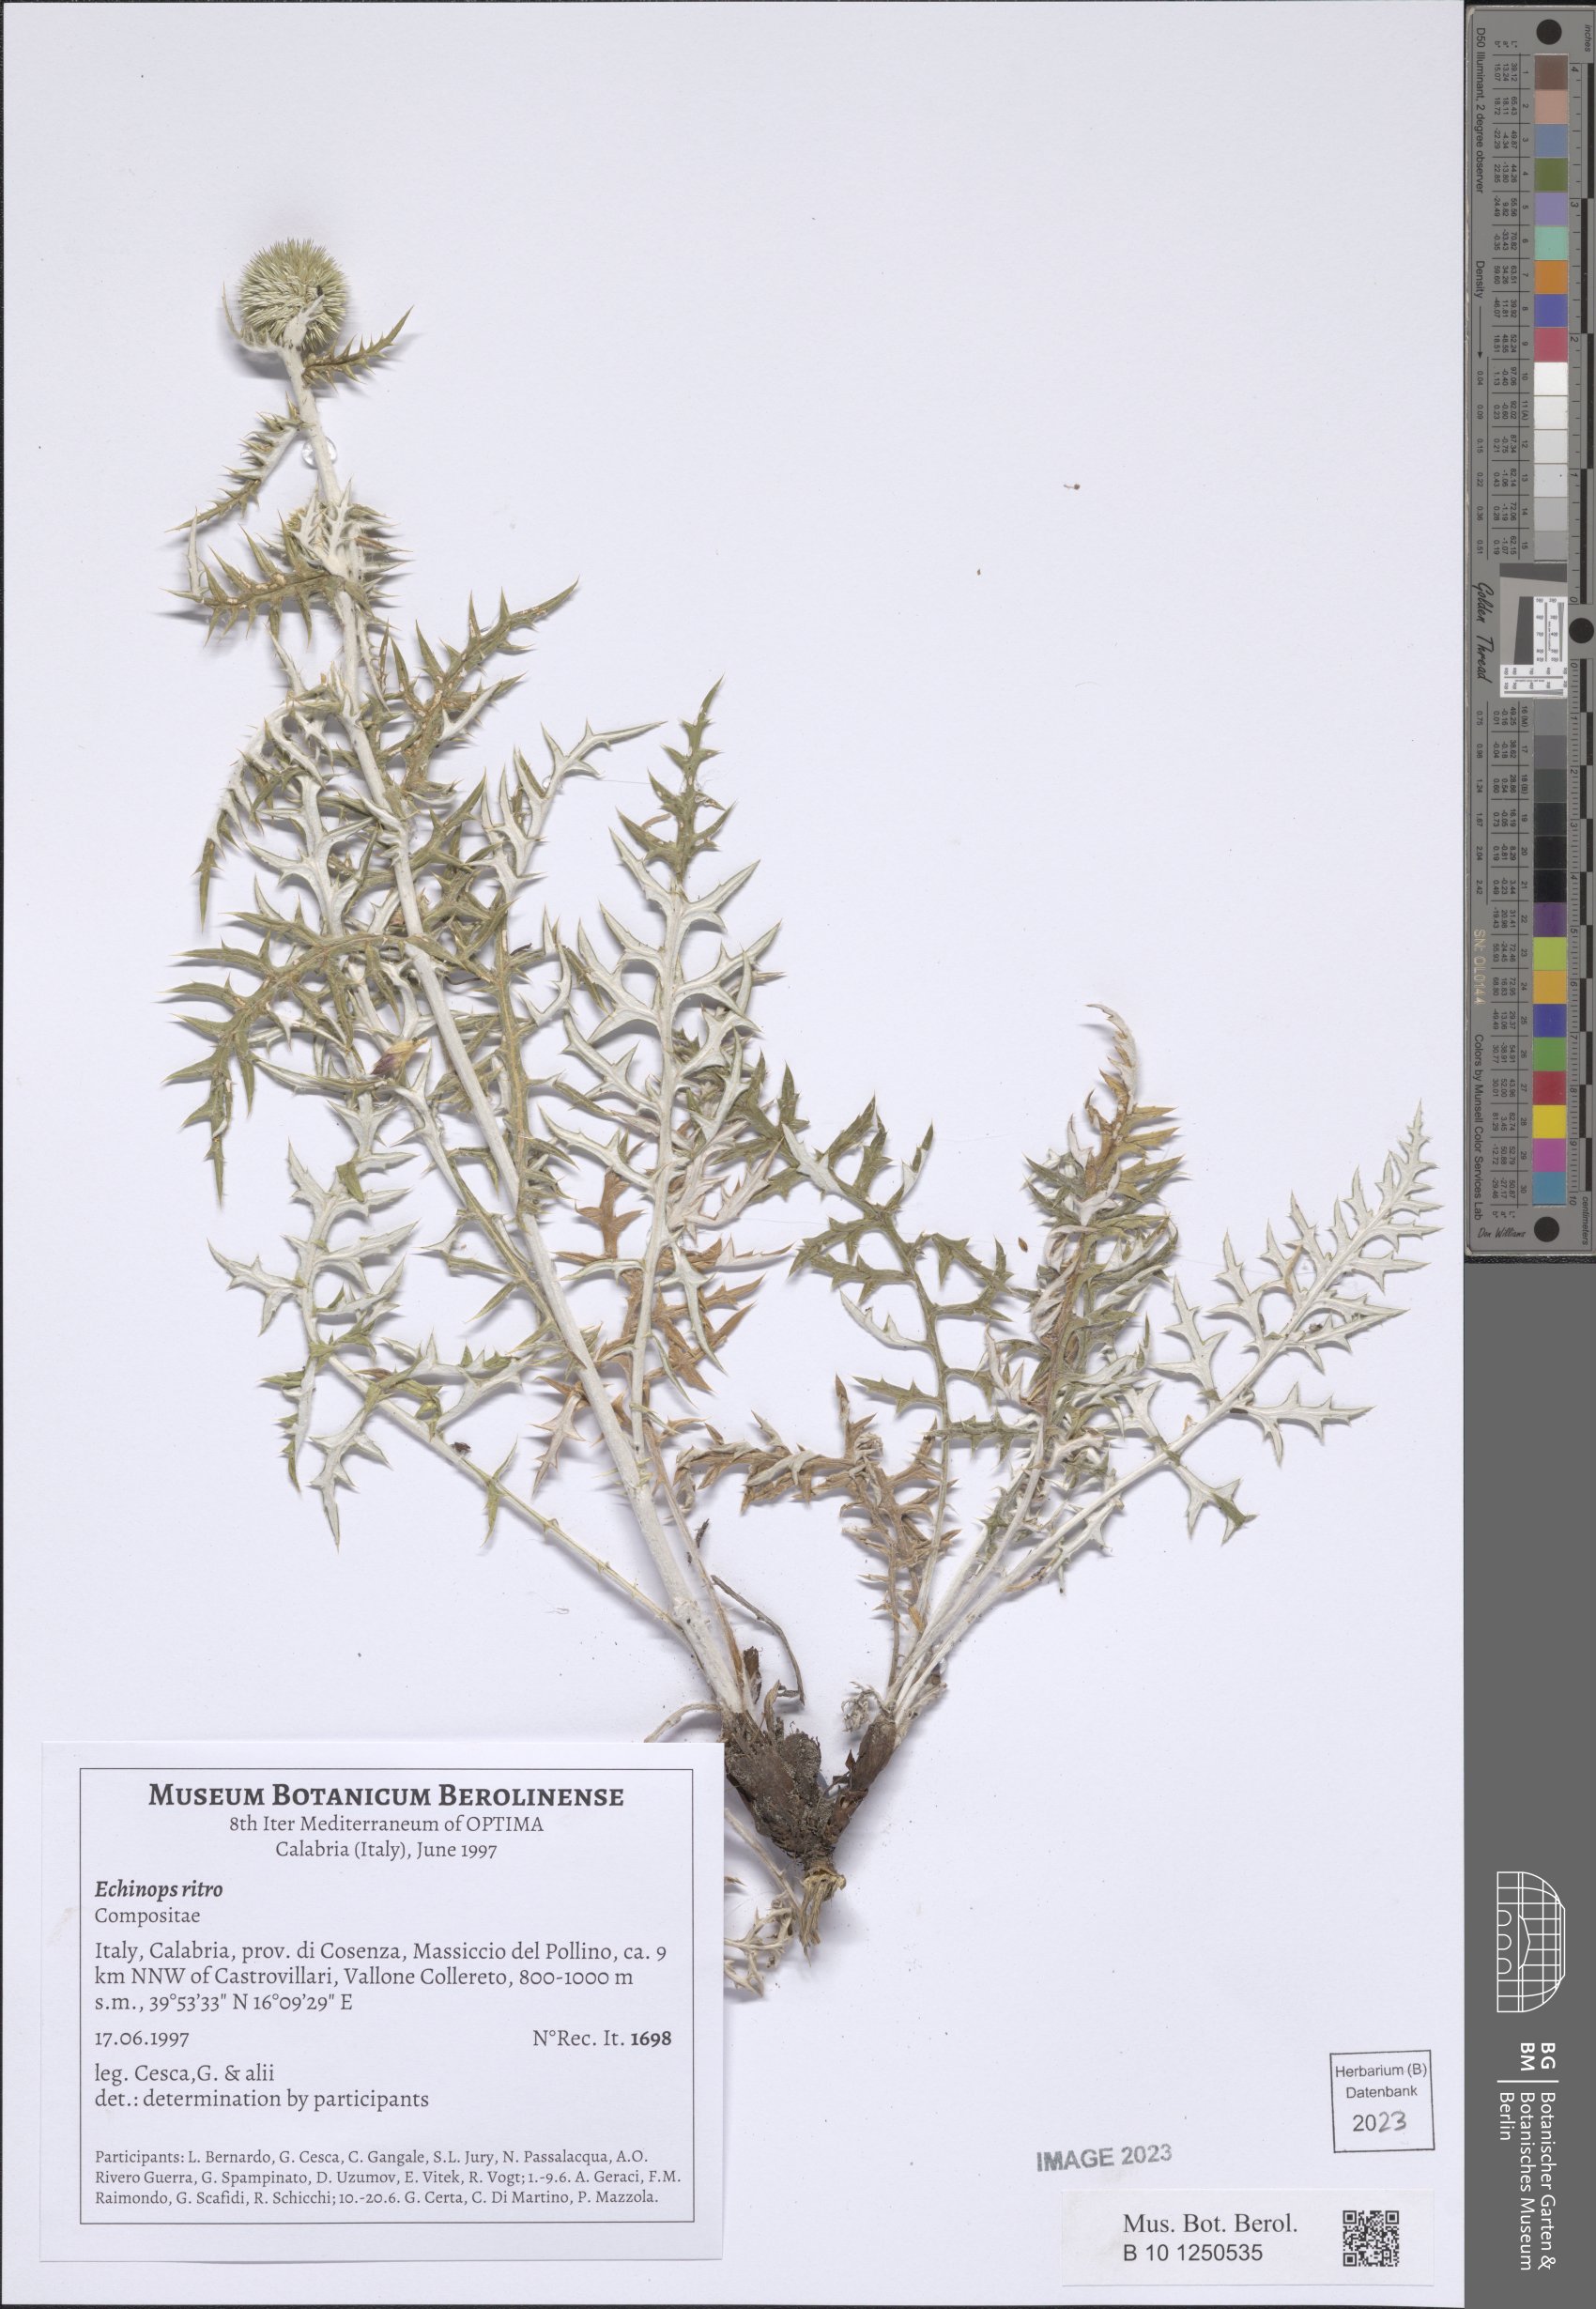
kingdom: Plantae
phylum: Tracheophyta
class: Magnoliopsida
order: Asterales
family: Asteraceae
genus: Echinops
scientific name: Echinops ritro
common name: Globe thistle
